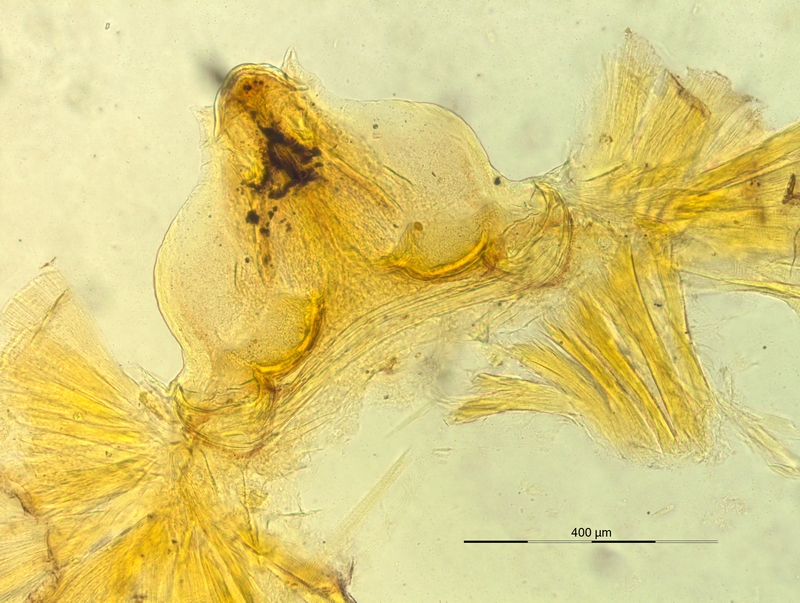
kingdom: Animalia
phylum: Arthropoda
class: Diplopoda
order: Chordeumatida
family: Craspedosomatidae
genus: Pyrgocyphosoma
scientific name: Pyrgocyphosoma fonticuli
